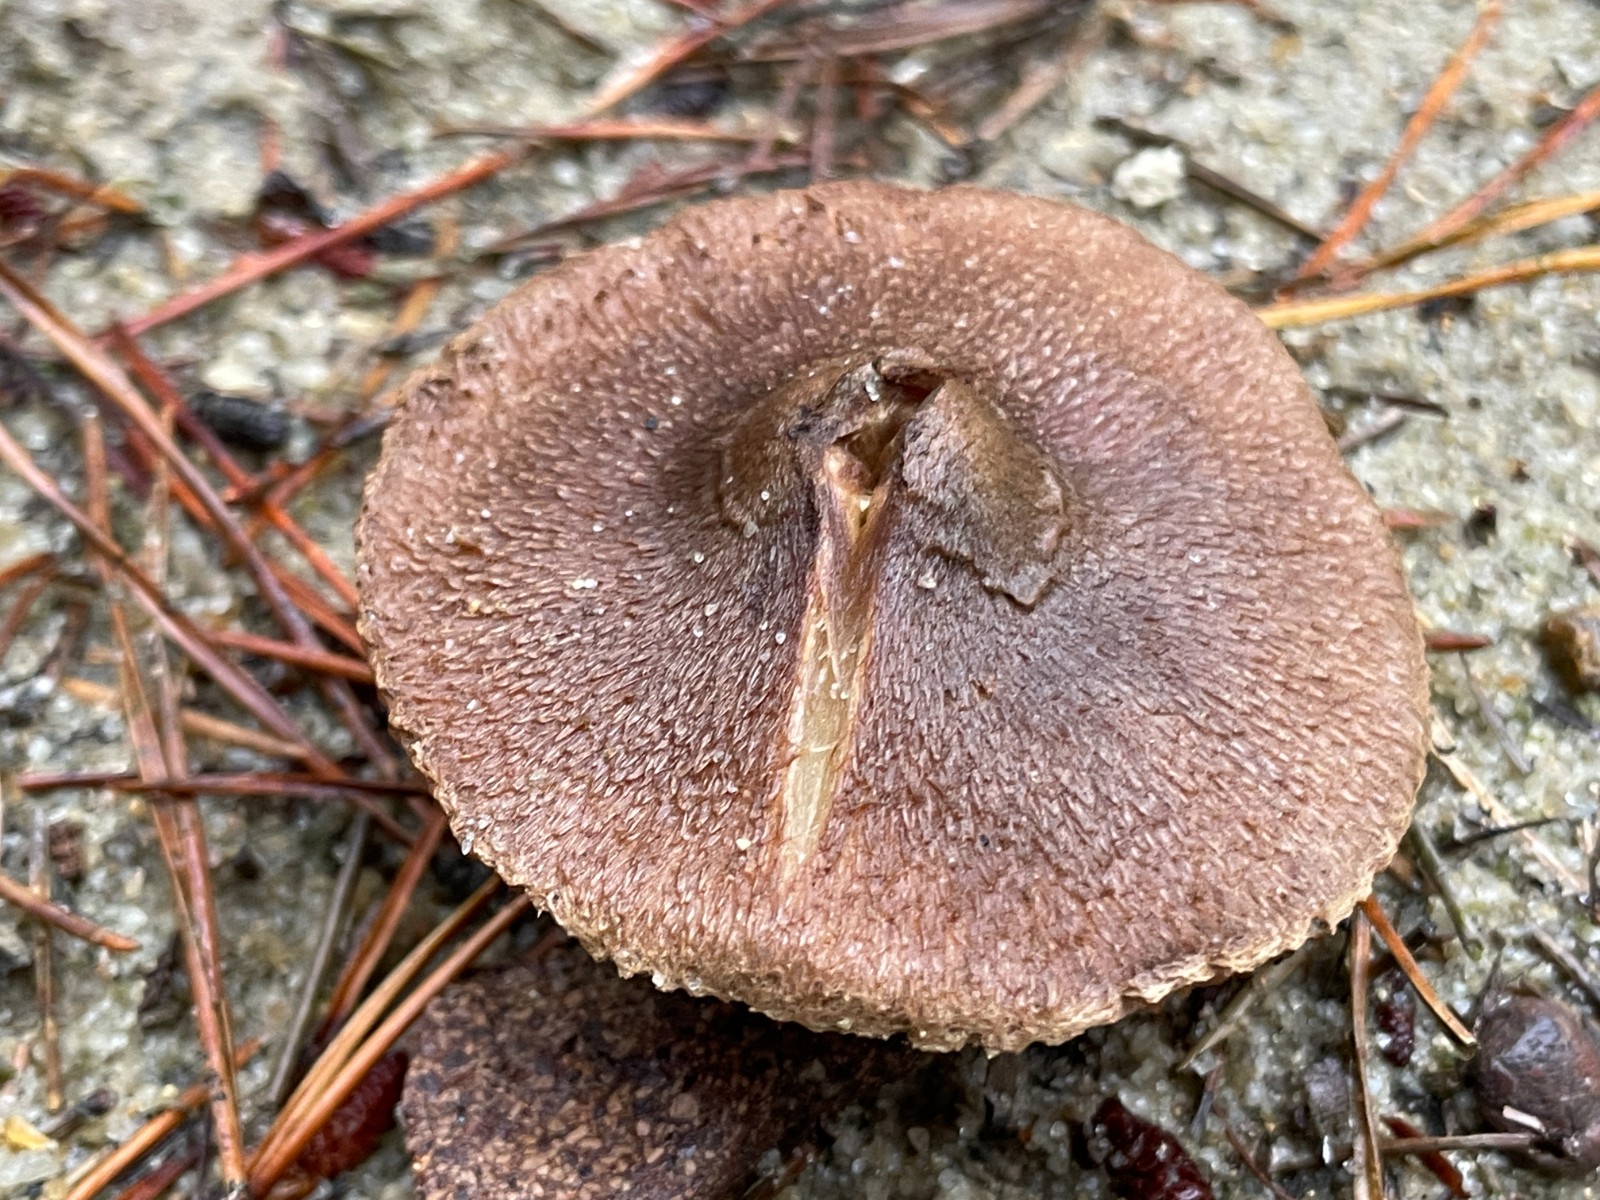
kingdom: Fungi
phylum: Basidiomycota
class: Agaricomycetes
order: Agaricales
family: Inocybaceae
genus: Inocybe
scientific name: Inocybe
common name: trævlhat
